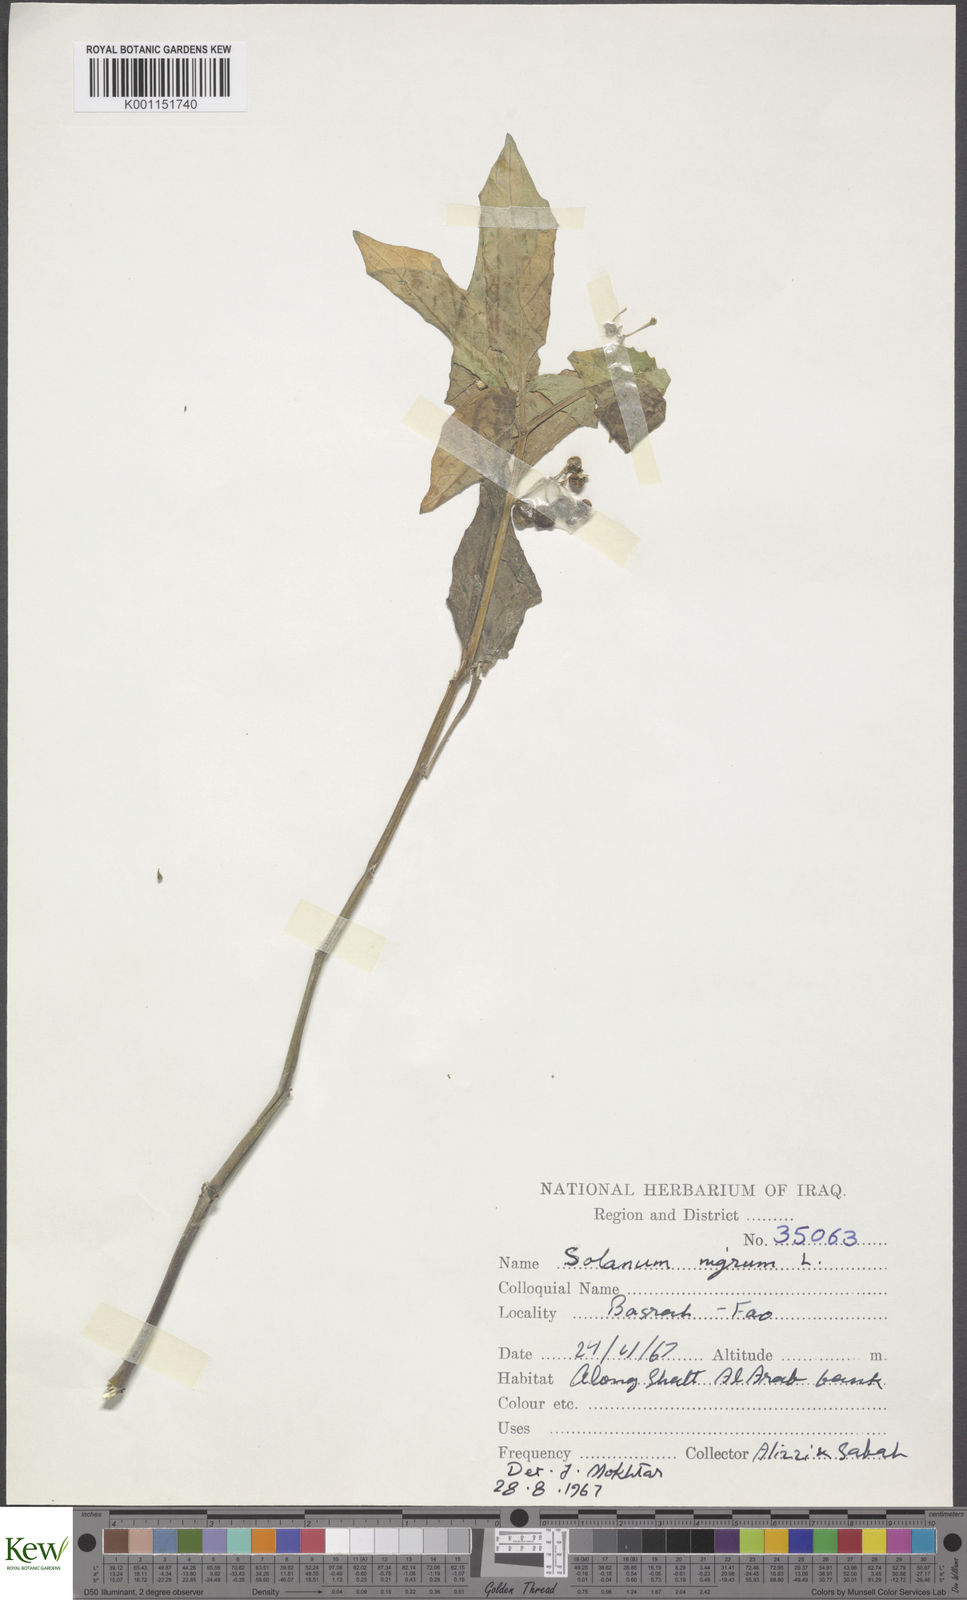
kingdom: Plantae
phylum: Tracheophyta
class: Magnoliopsida
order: Solanales
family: Solanaceae
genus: Solanum
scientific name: Solanum nigrum
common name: Black nightshade
